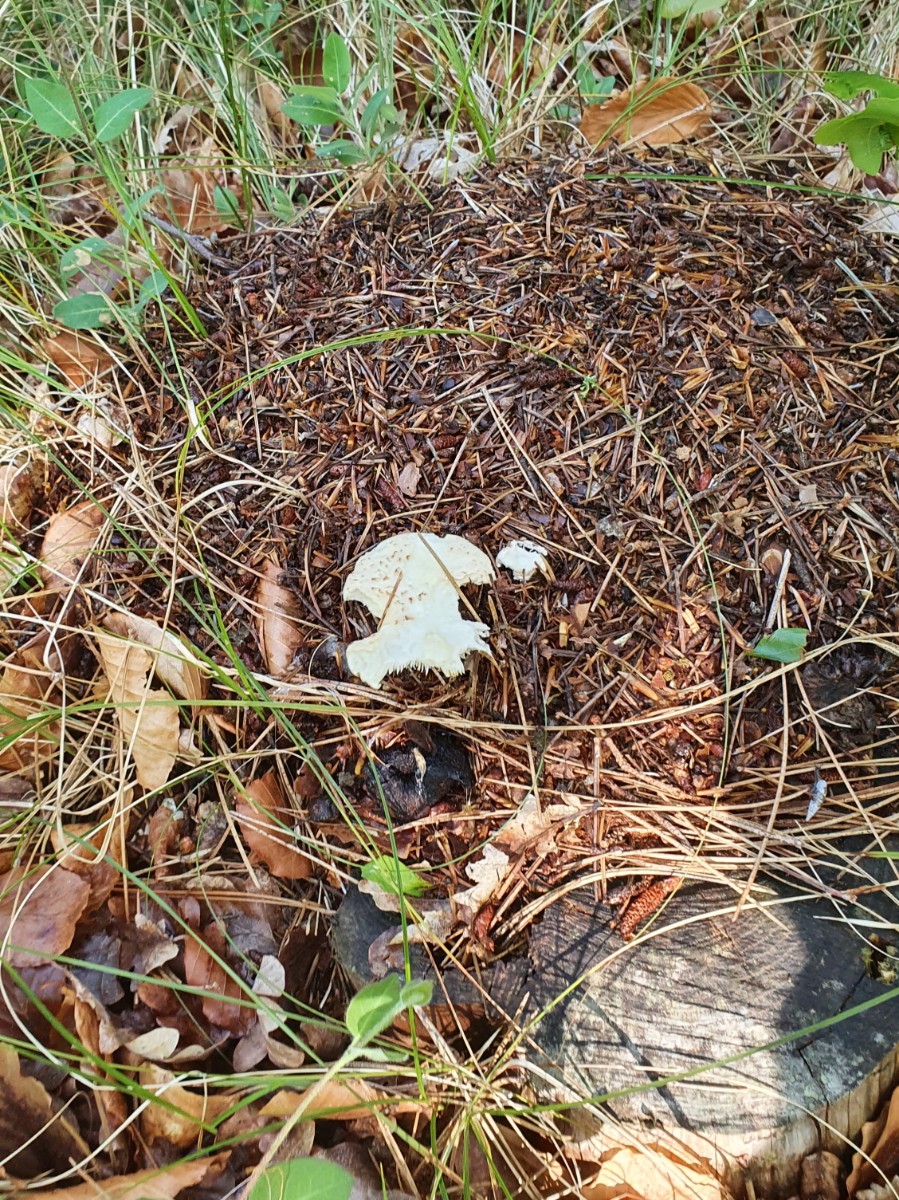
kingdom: Fungi
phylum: Basidiomycota
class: Agaricomycetes
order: Gloeophyllales
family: Gloeophyllaceae
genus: Neolentinus
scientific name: Neolentinus lepideus
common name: skællet sejhat
